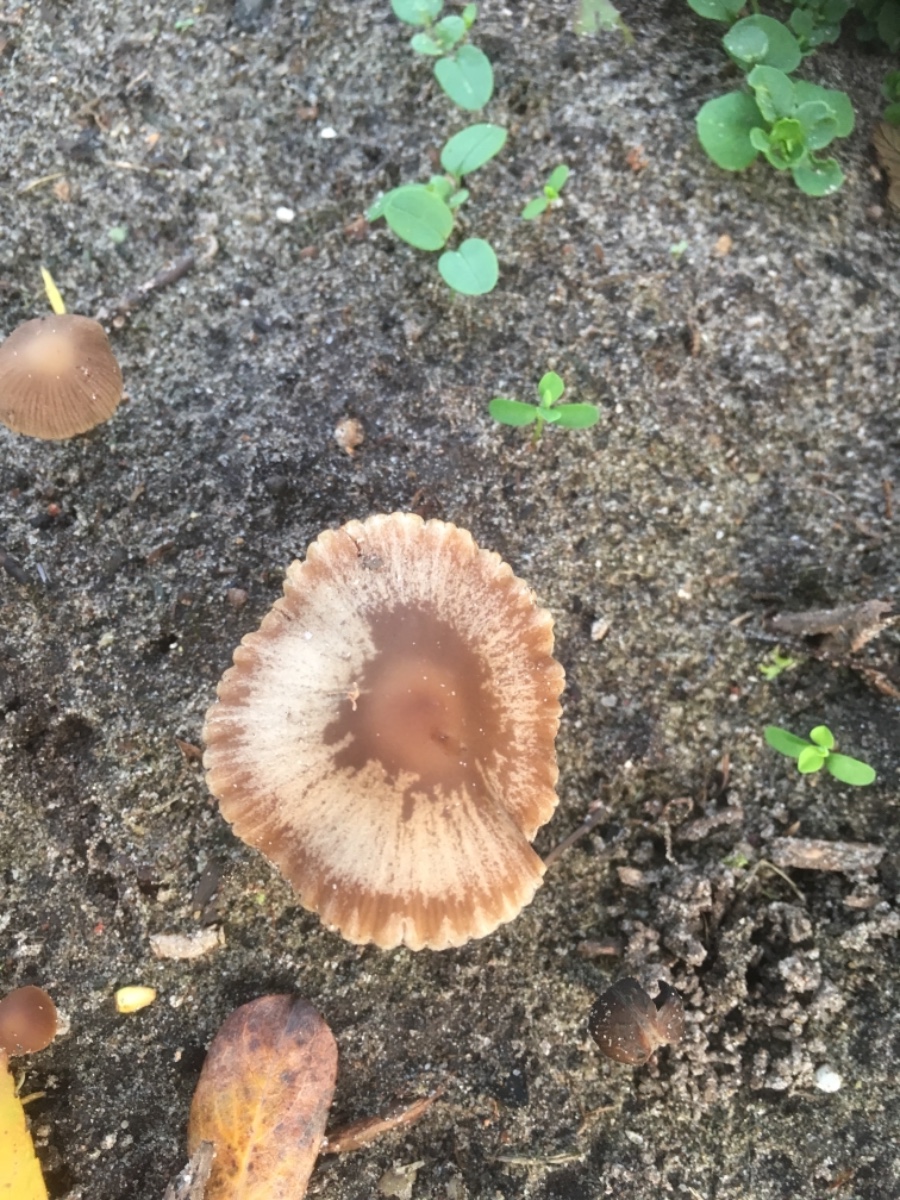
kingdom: Fungi
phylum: Basidiomycota
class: Agaricomycetes
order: Agaricales
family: Psathyrellaceae
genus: Psathyrella
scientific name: Psathyrella
